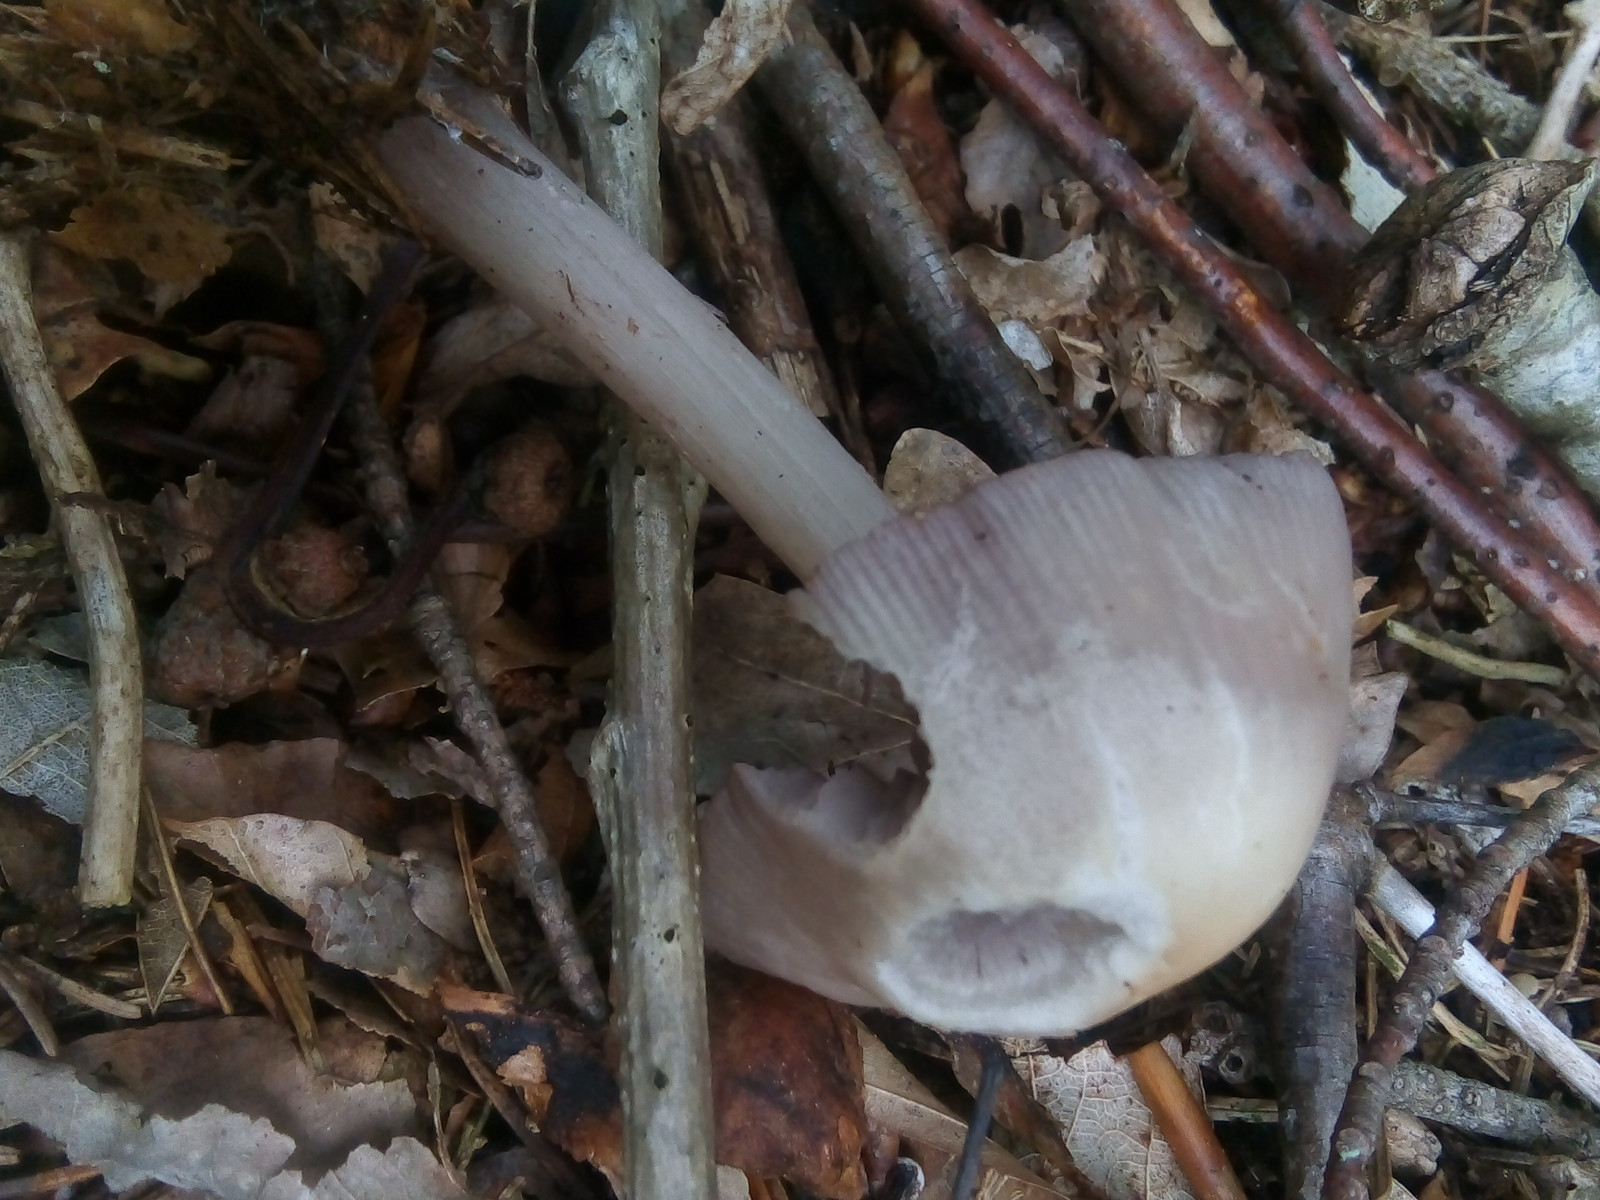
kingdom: Fungi
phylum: Basidiomycota
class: Agaricomycetes
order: Agaricales
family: Mycenaceae
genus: Mycena
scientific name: Mycena pelianthina
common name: mørkbladet huesvamp
